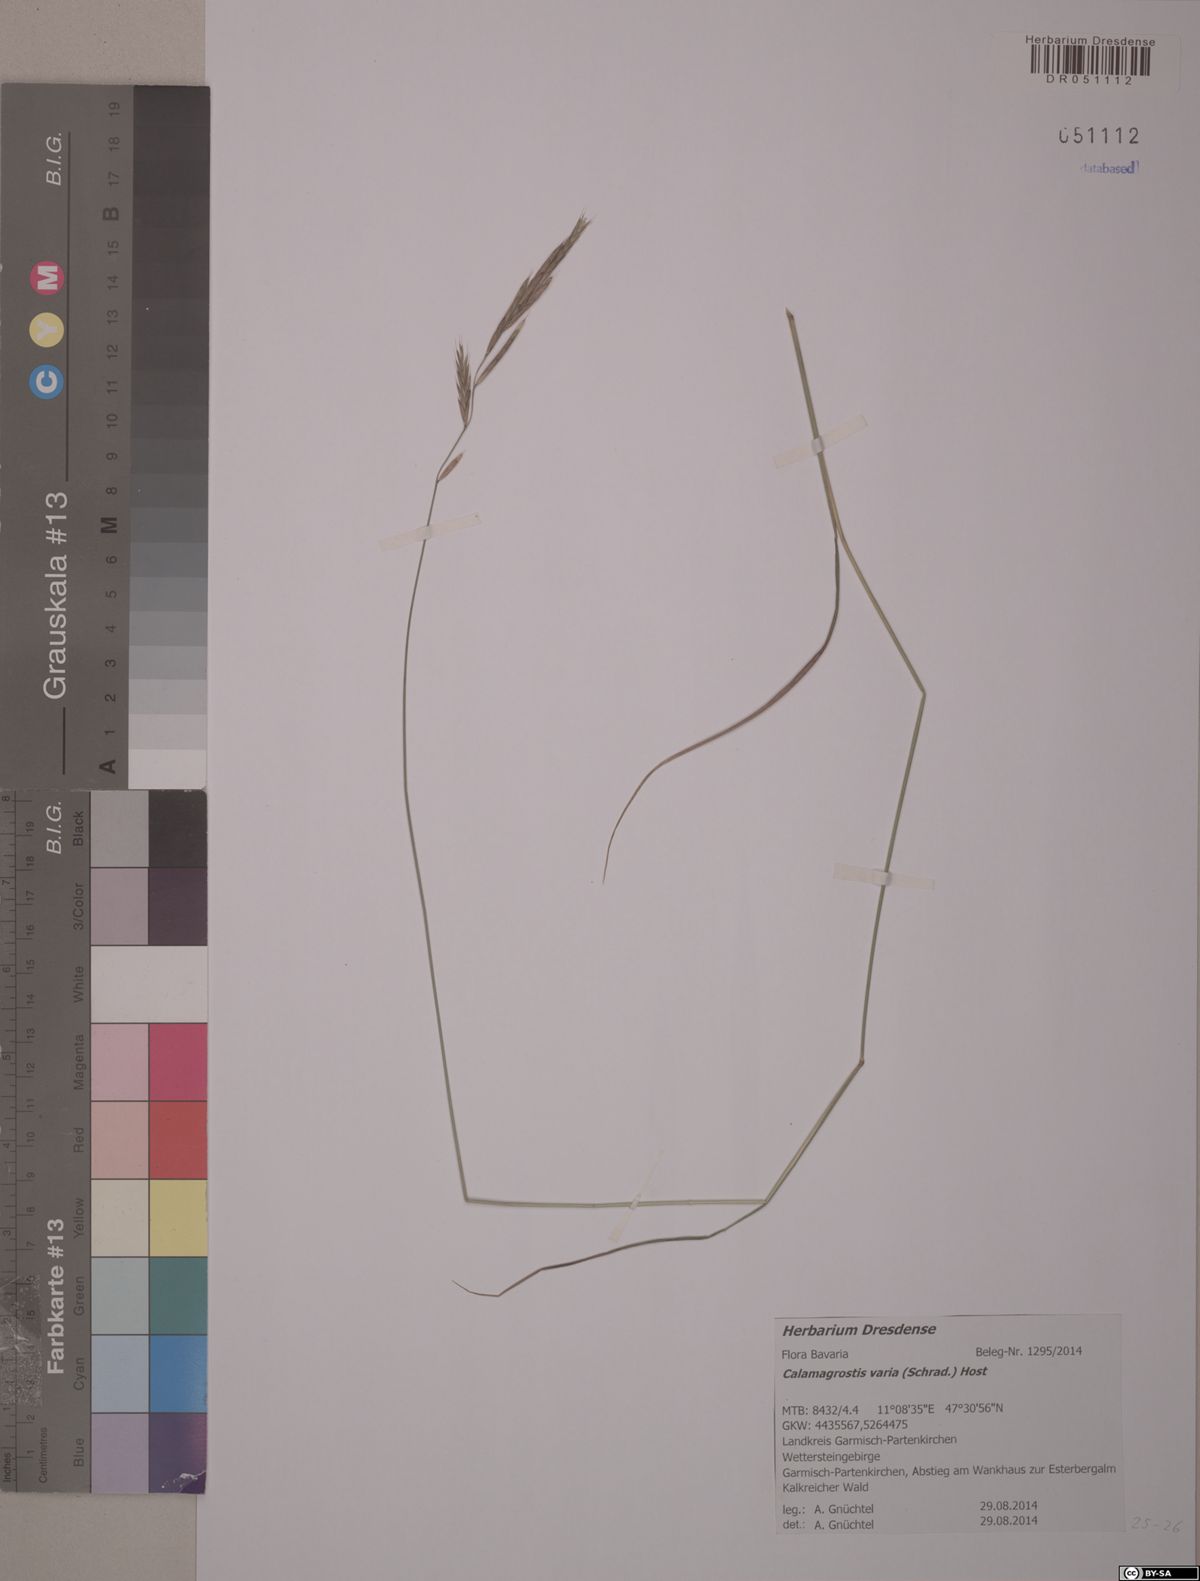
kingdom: Plantae
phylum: Tracheophyta
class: Liliopsida
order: Poales
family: Poaceae
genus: Calamagrostis
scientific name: Calamagrostis varia
